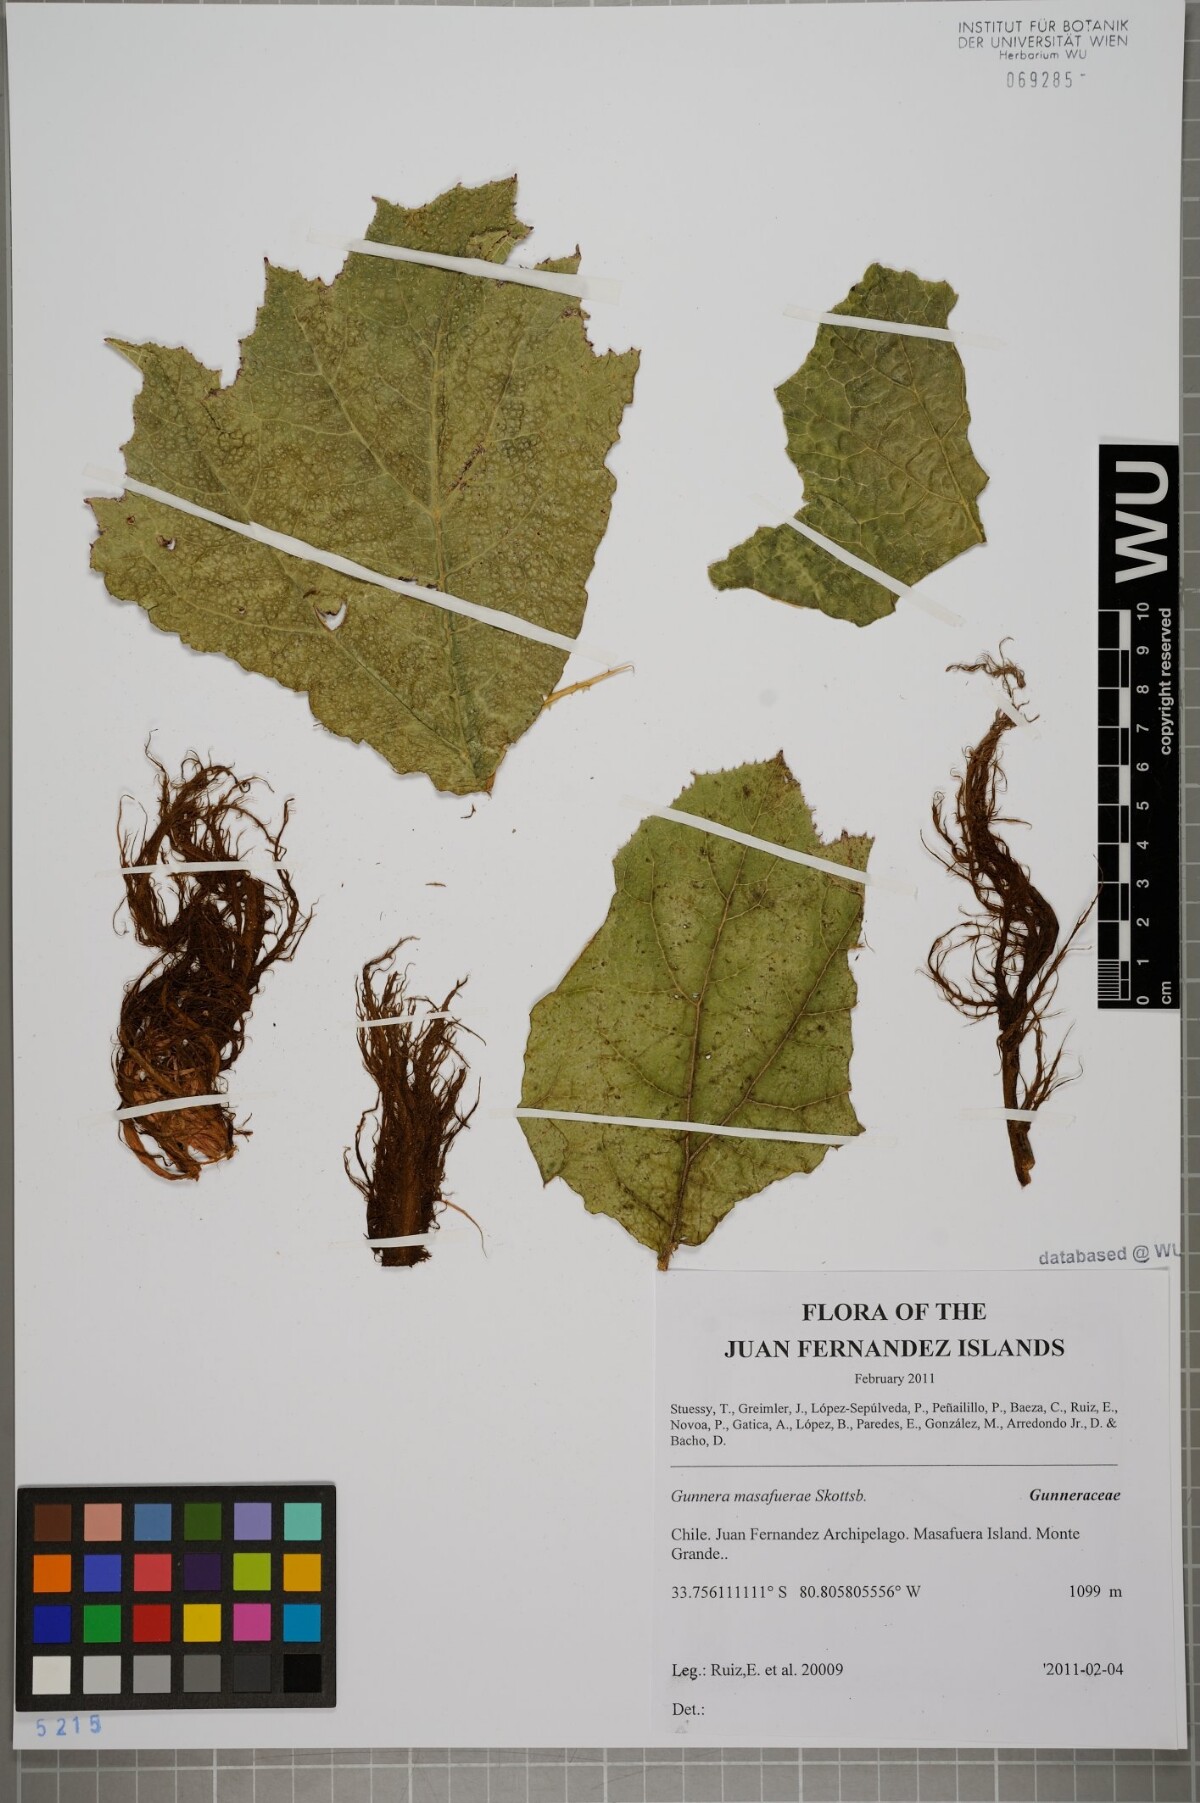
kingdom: Plantae
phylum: Tracheophyta
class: Magnoliopsida
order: Gunnerales
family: Gunneraceae
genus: Gunnera
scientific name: Gunnera masafuerae
